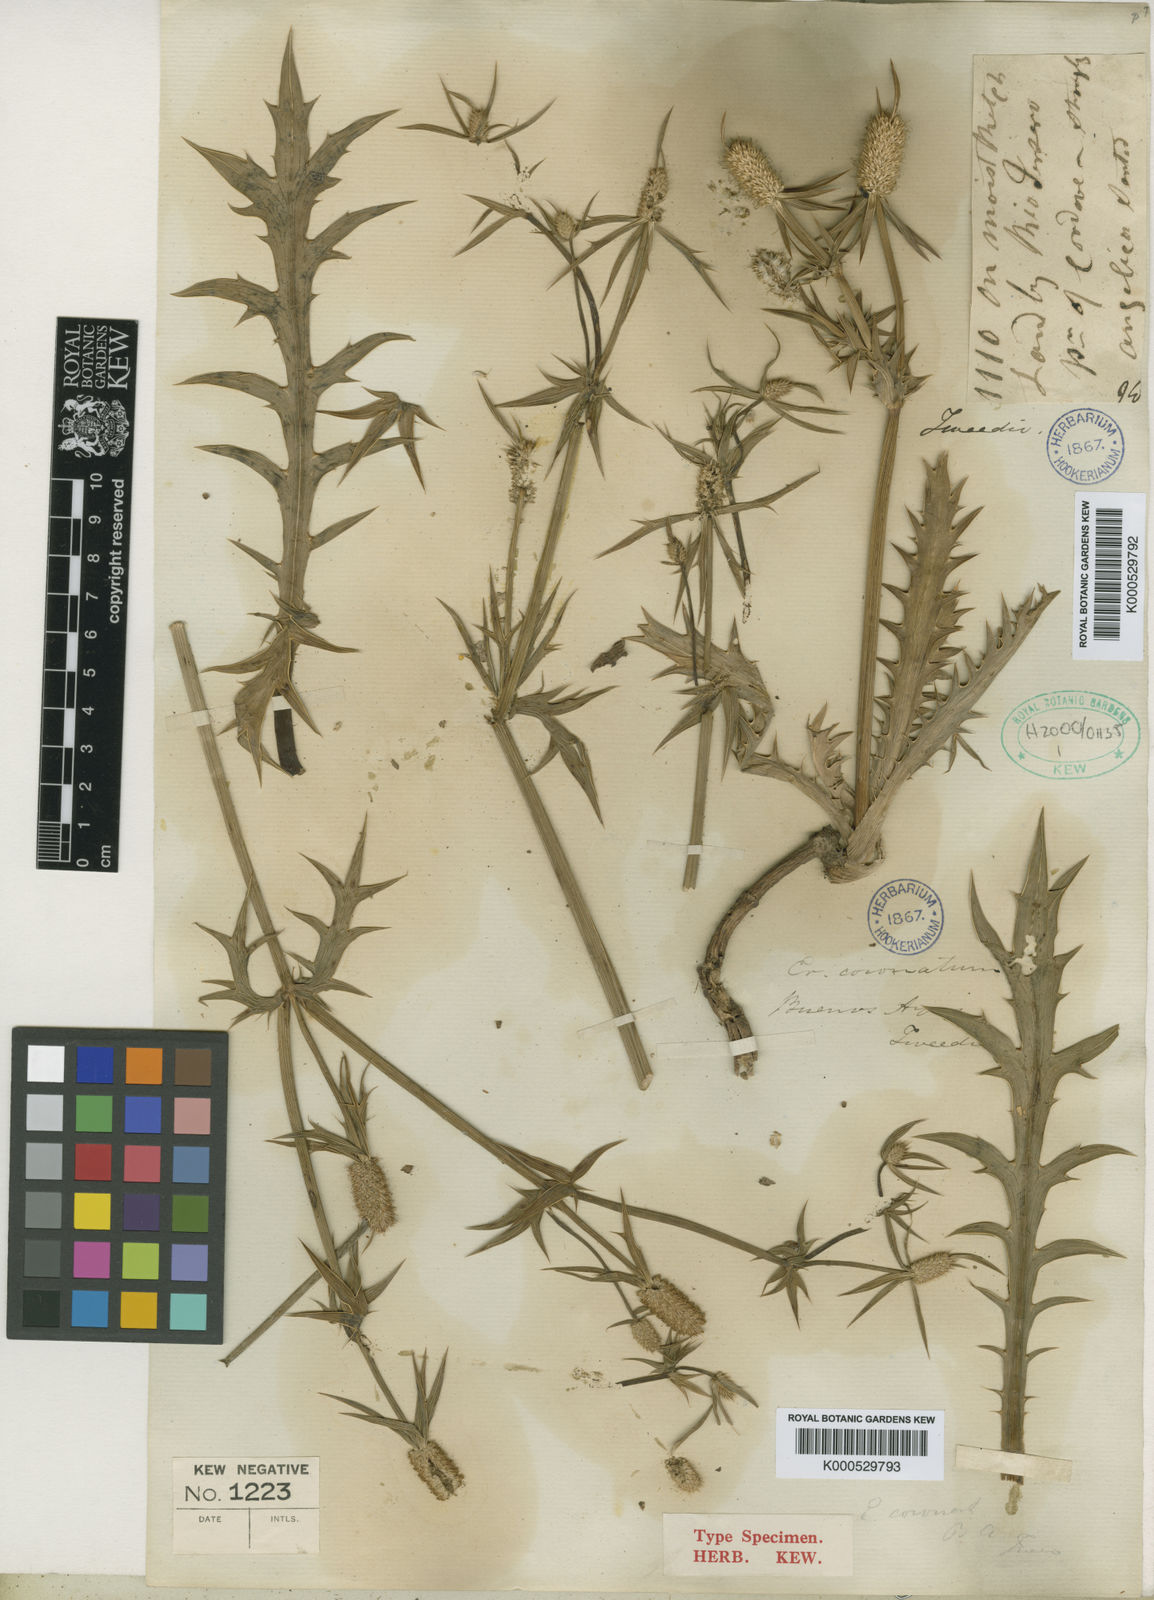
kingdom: Plantae
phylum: Tracheophyta
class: Magnoliopsida
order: Apiales
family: Apiaceae
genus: Eryngium
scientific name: Eryngium coronatum
